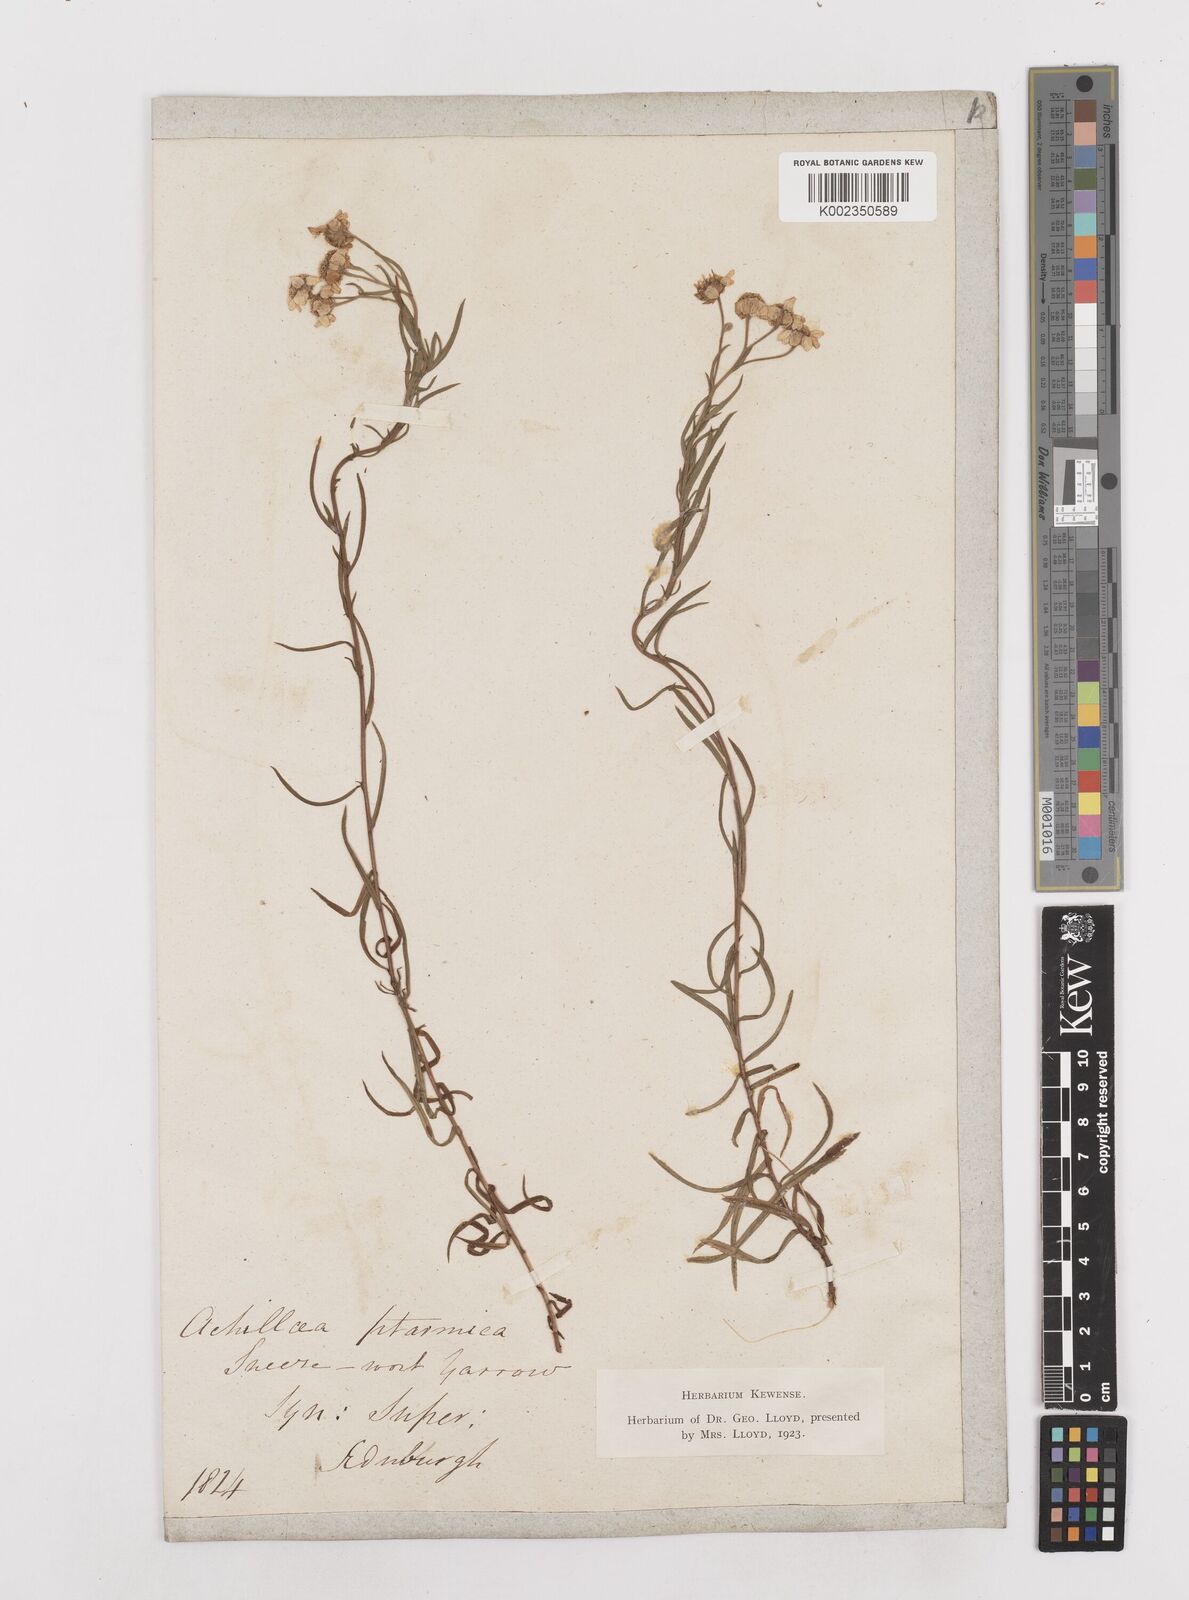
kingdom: Plantae
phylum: Tracheophyta
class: Magnoliopsida
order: Asterales
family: Asteraceae
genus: Achillea
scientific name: Achillea
